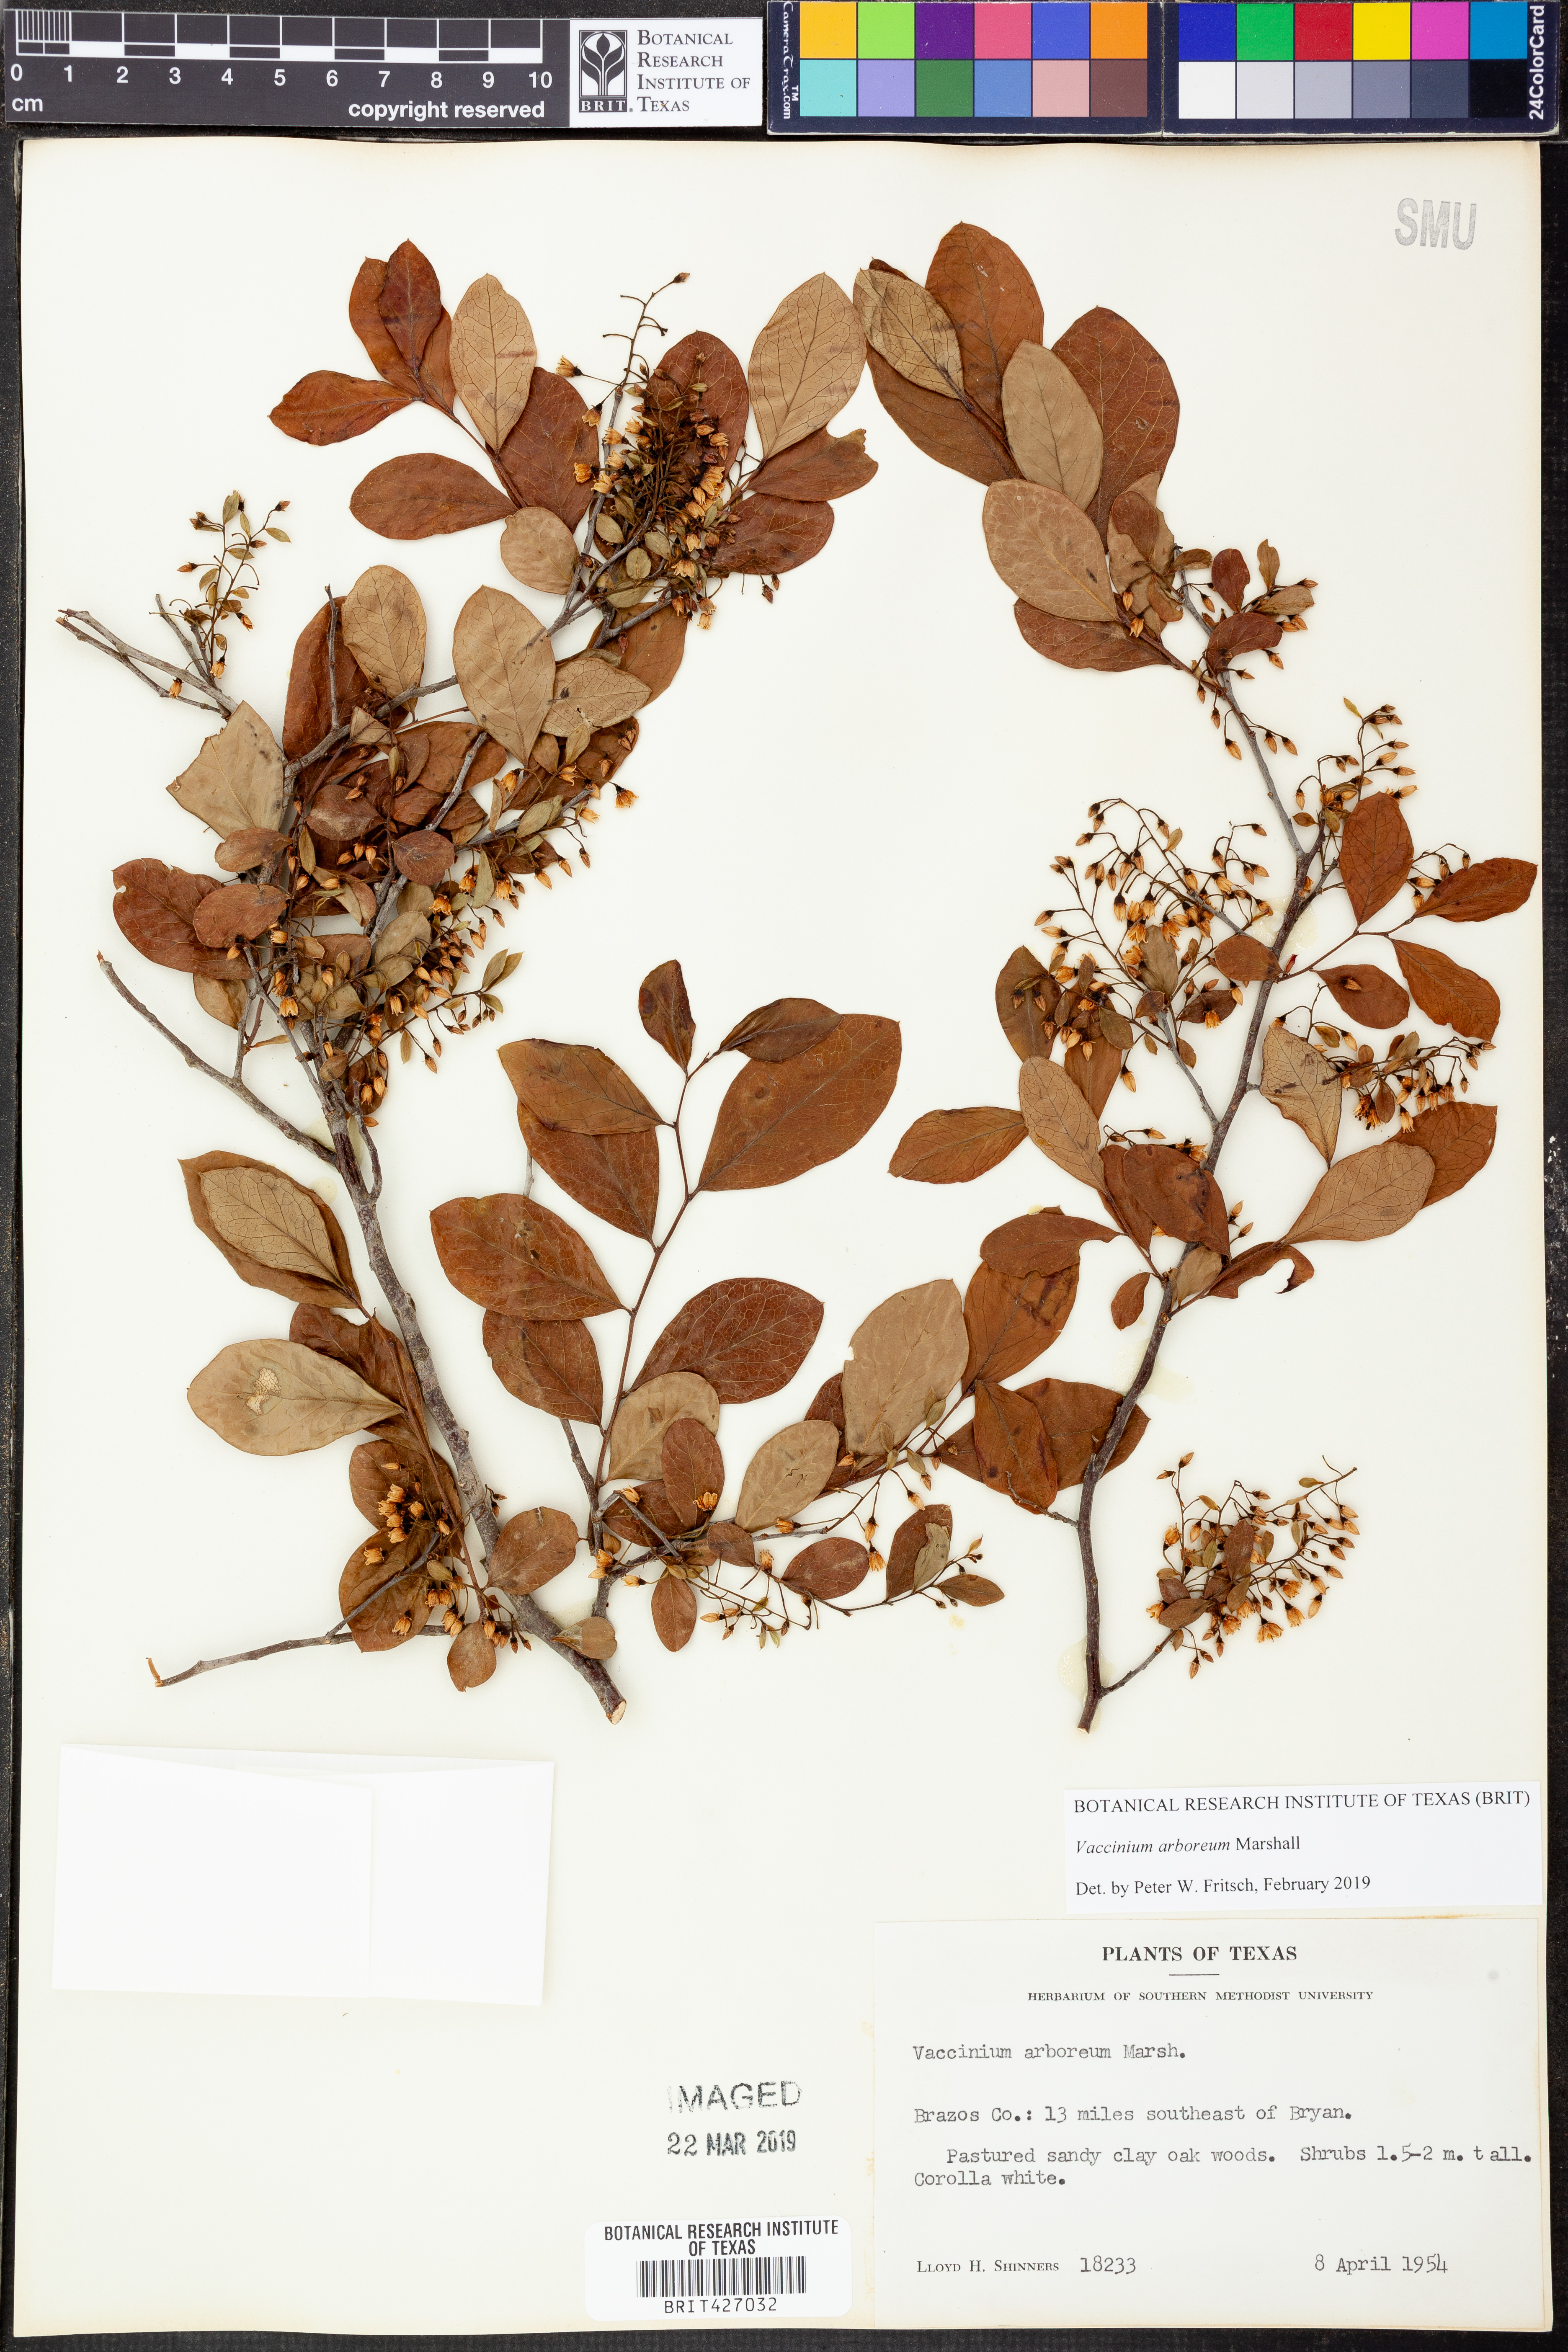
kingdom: Plantae
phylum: Tracheophyta
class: Magnoliopsida
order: Ericales
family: Ericaceae
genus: Vaccinium
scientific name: Vaccinium arboreum
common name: Farkleberry
